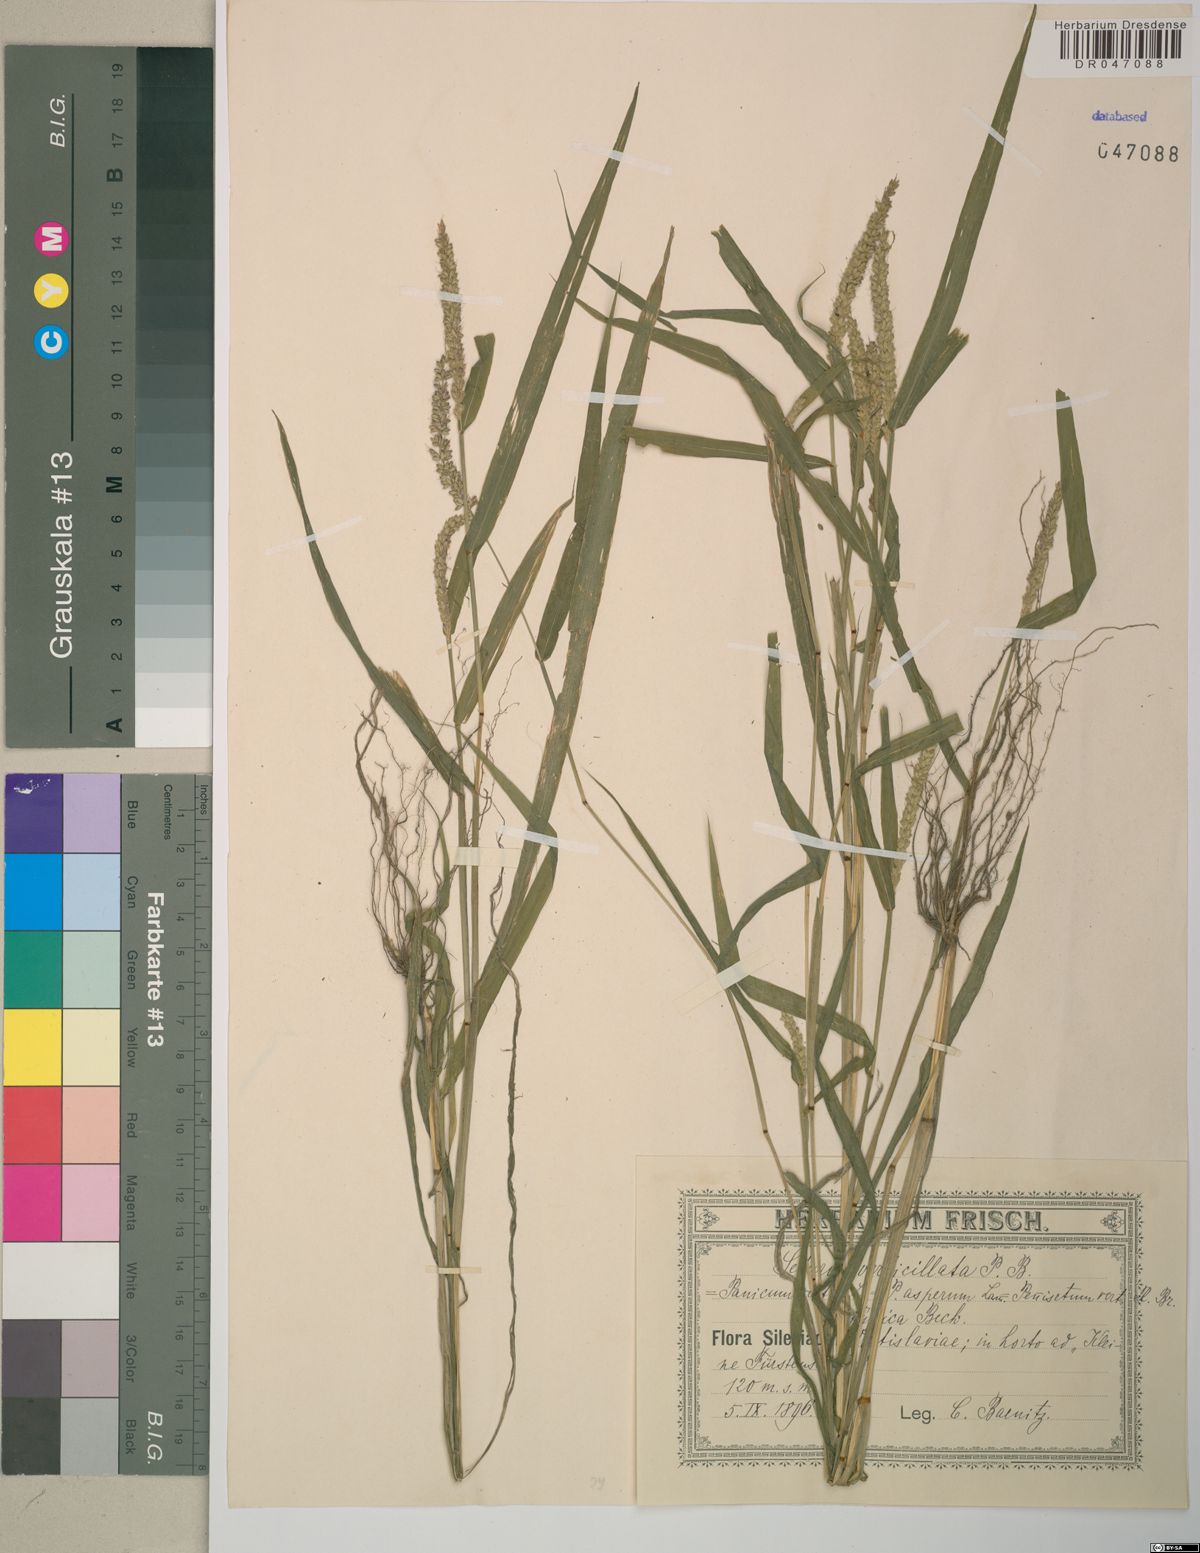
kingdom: Plantae
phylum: Tracheophyta
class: Liliopsida
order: Poales
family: Poaceae
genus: Setaria
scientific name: Setaria verticillata
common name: Hooked bristlegrass
